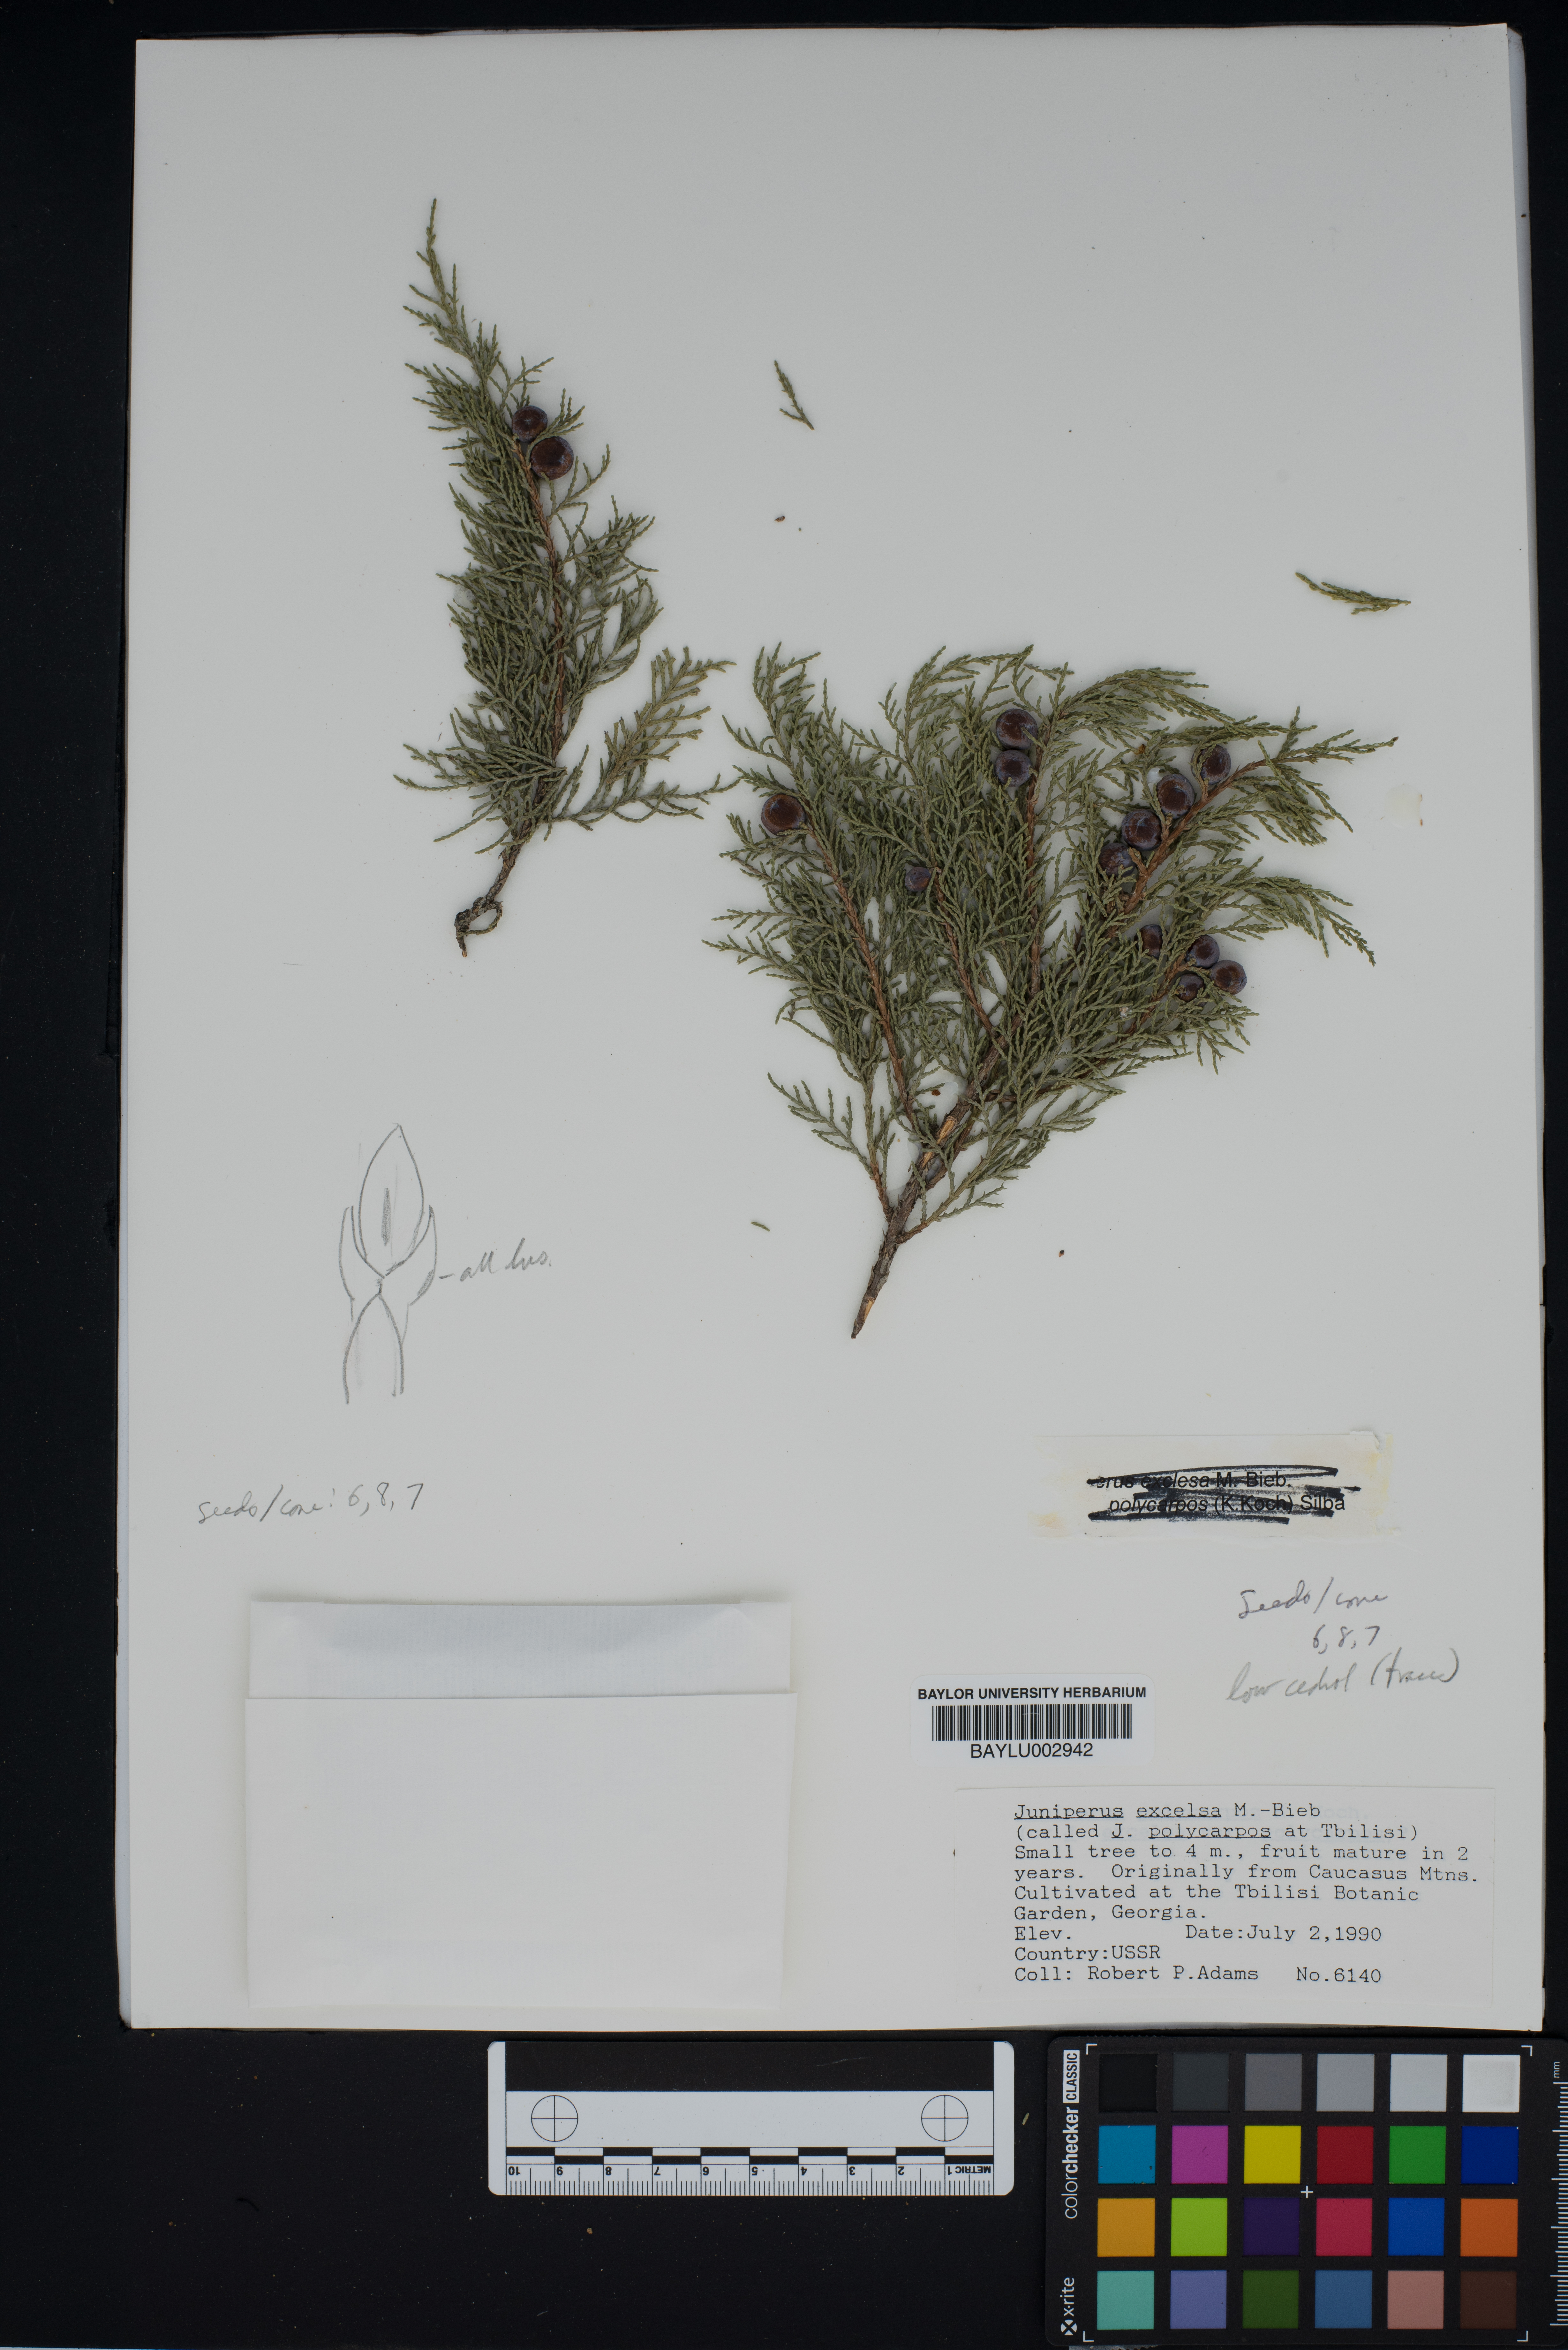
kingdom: Plantae
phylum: Tracheophyta
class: Pinopsida
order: Pinales
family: Cupressaceae
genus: Juniperus
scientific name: Juniperus excelsa
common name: Crimean juniper
